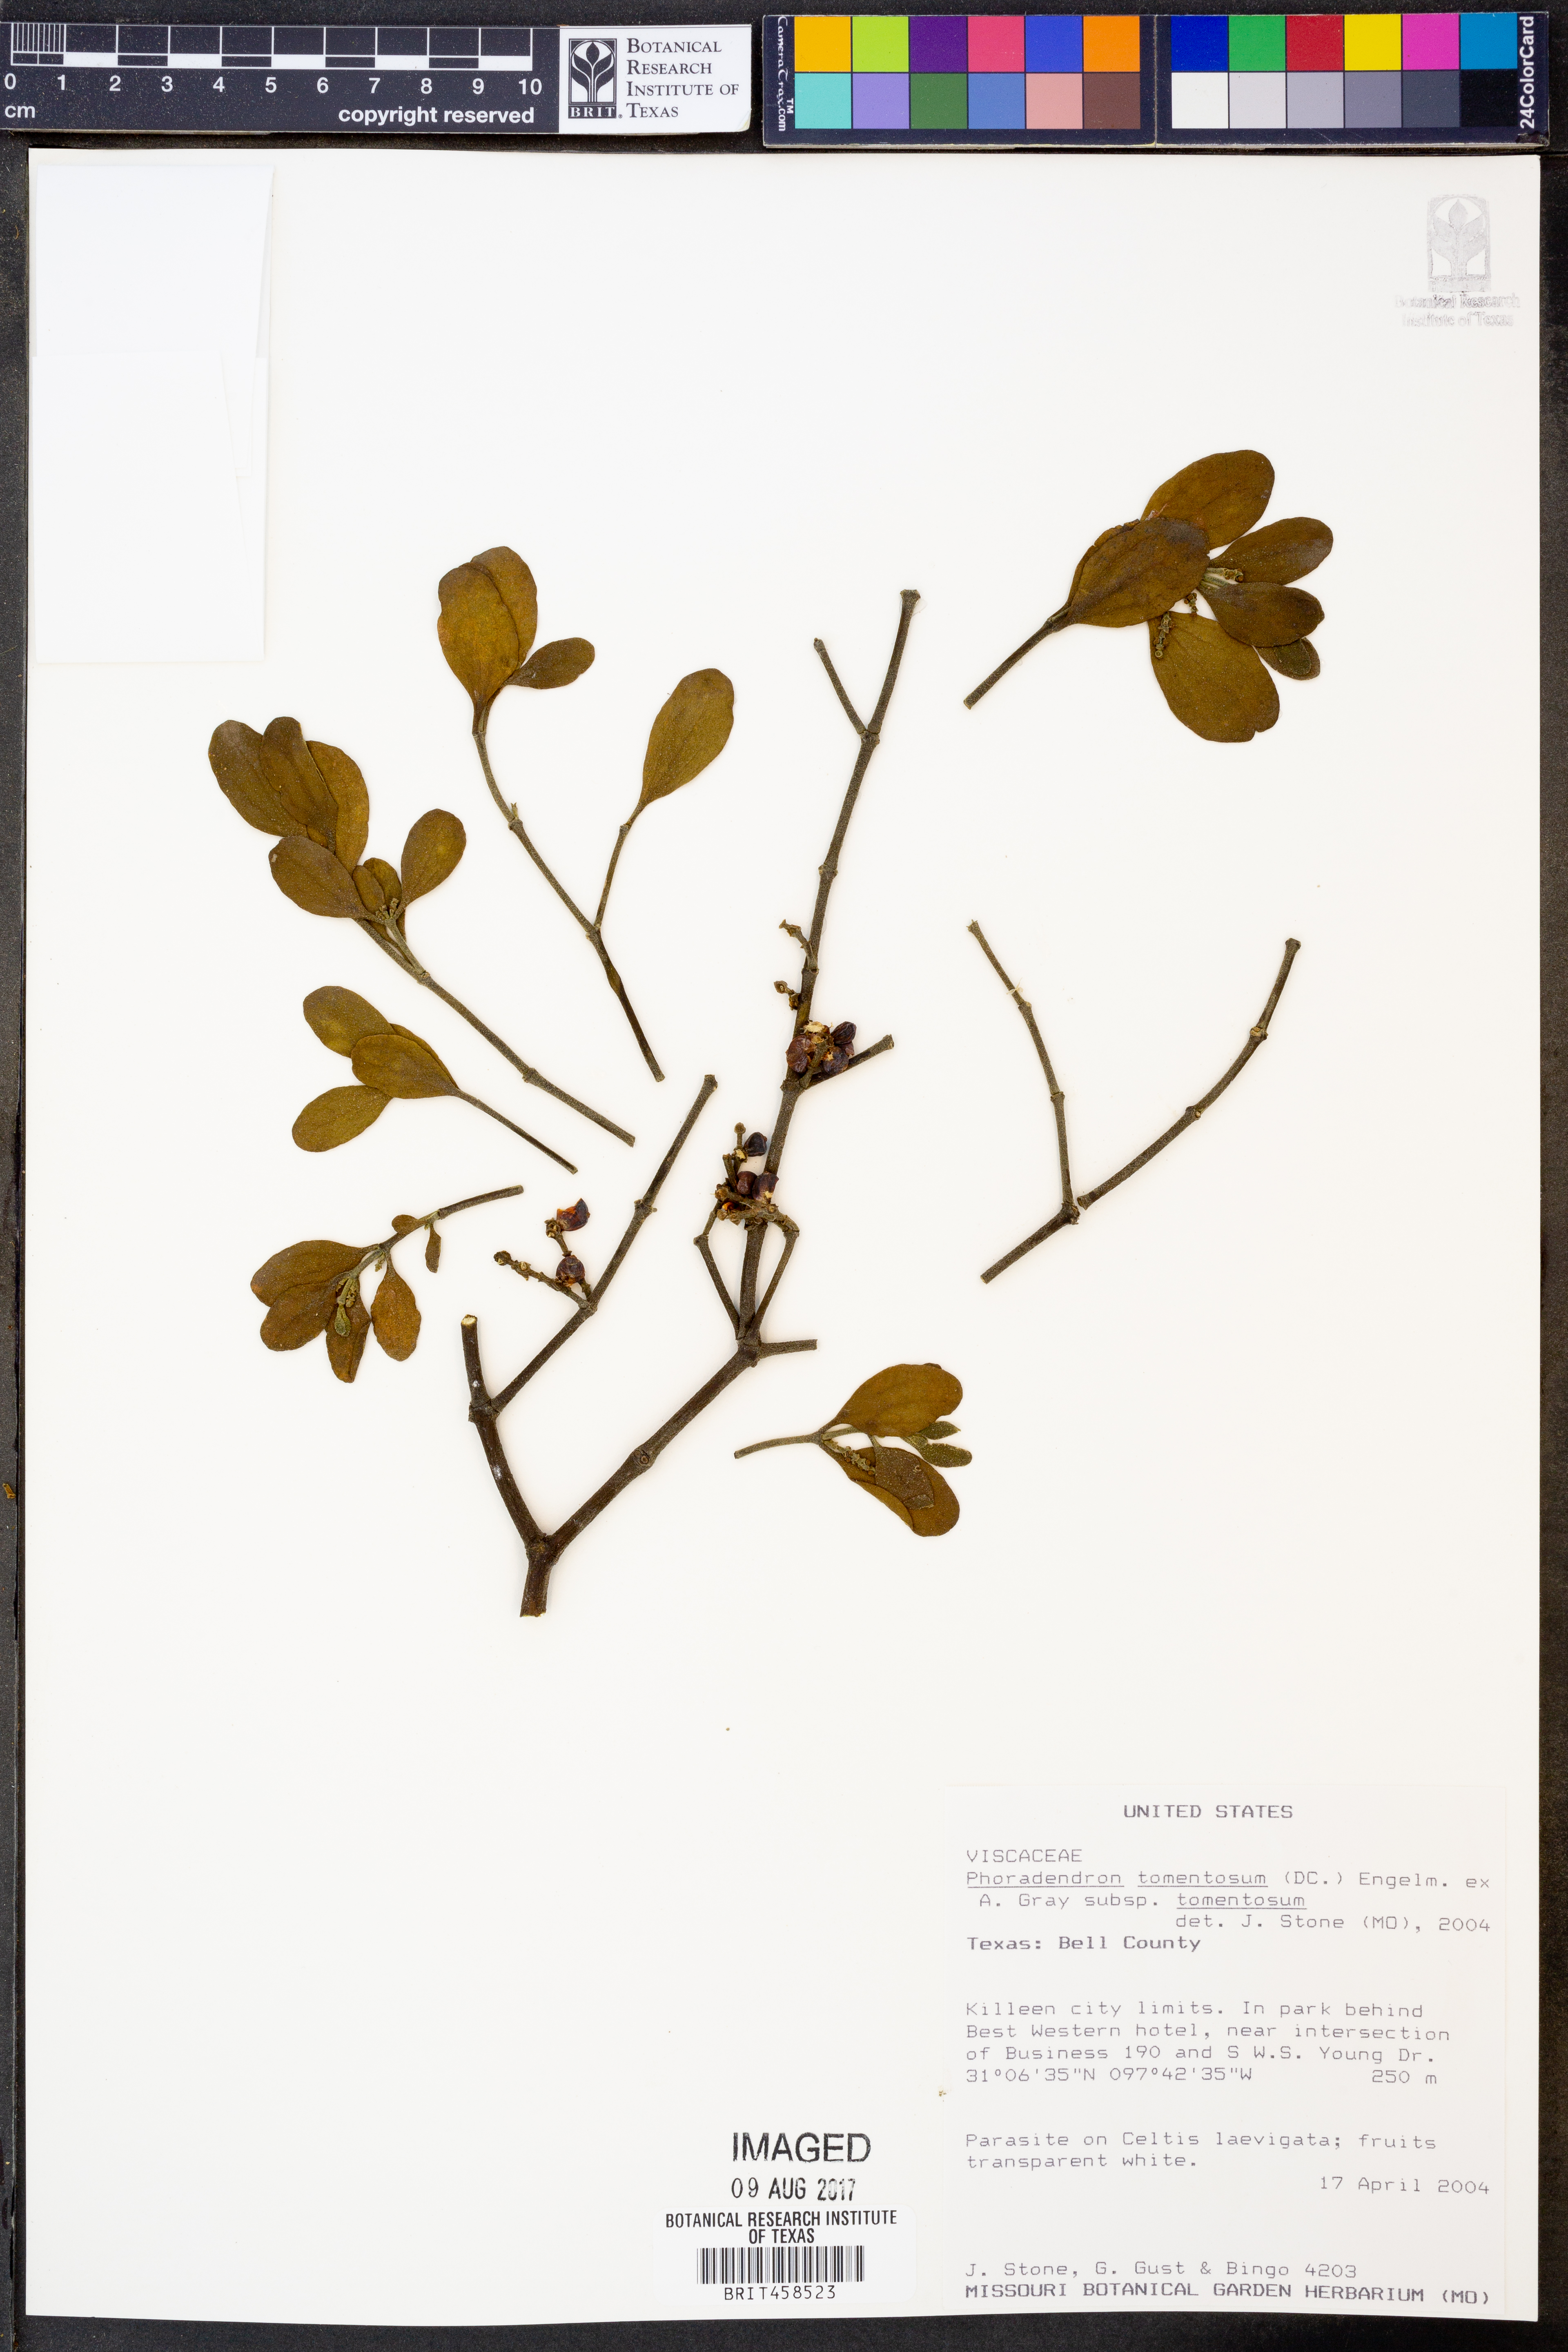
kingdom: Plantae
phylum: Tracheophyta
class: Magnoliopsida
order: Santalales
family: Viscaceae
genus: Phoradendron
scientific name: Phoradendron leucarpum
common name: Pacific mistletoe
